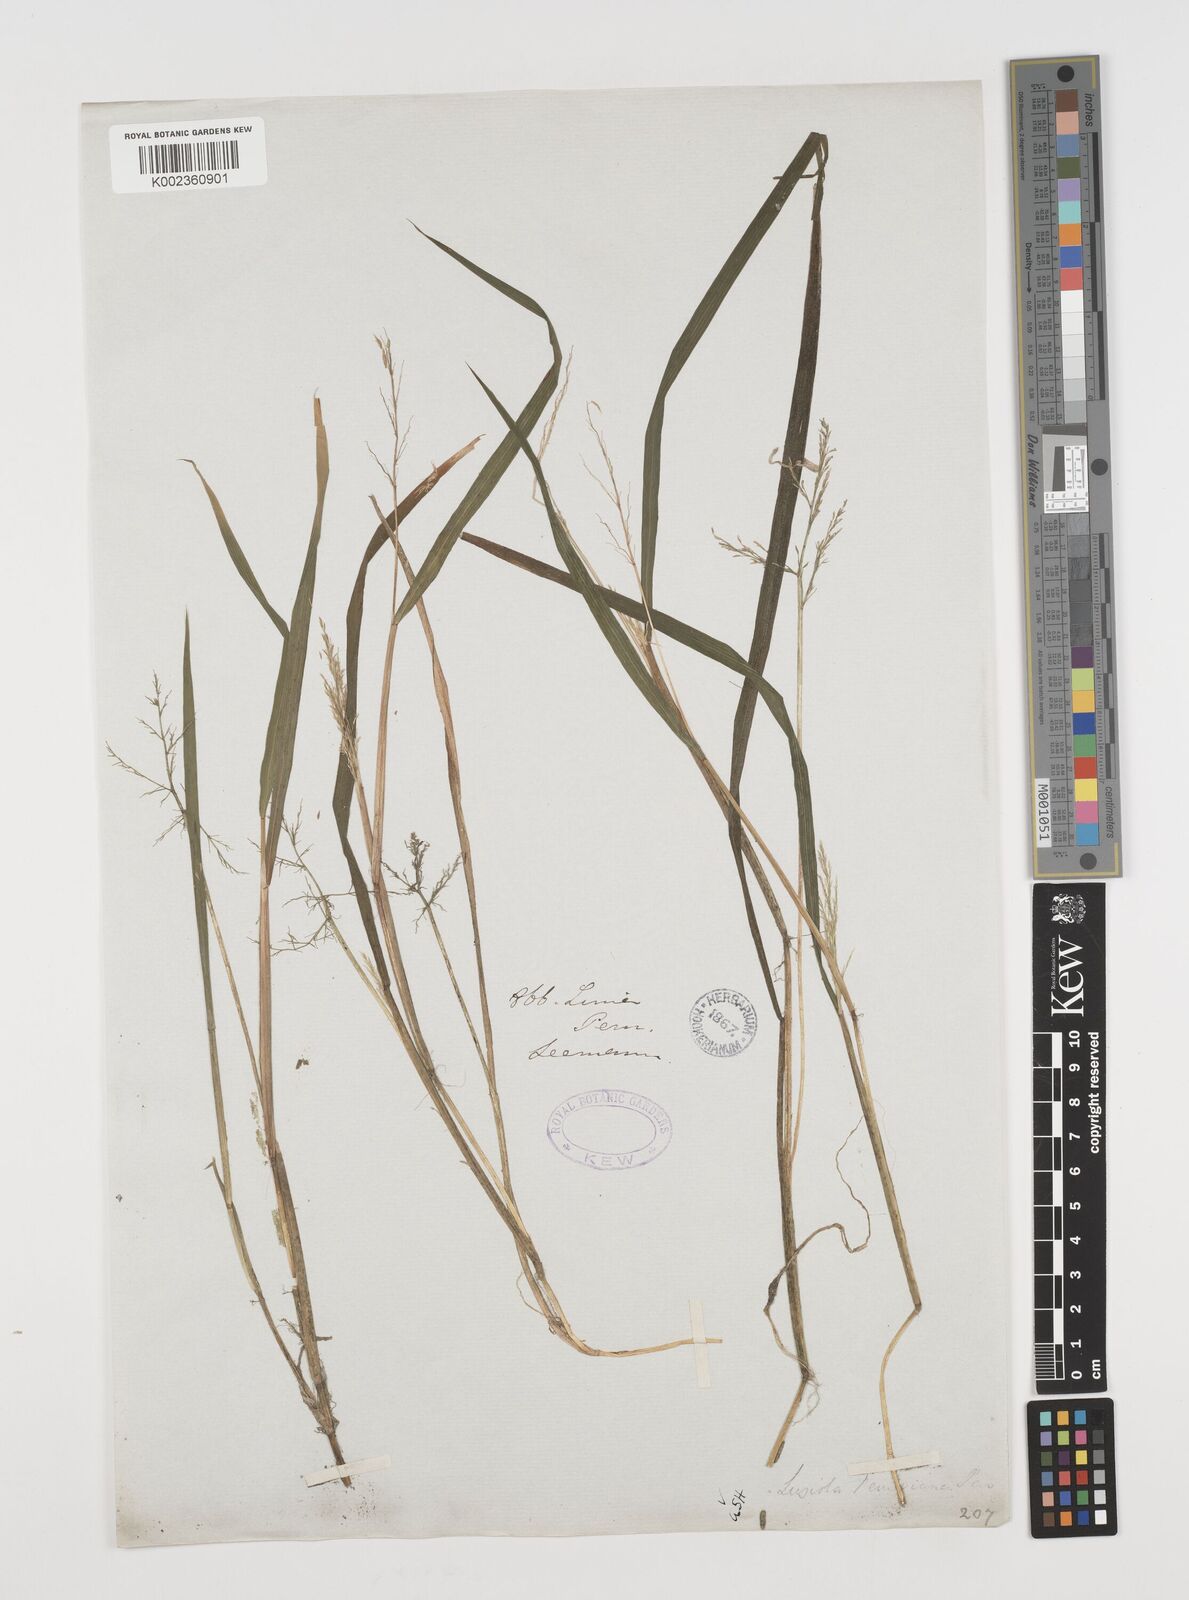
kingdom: Plantae
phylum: Tracheophyta
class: Liliopsida
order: Poales
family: Poaceae
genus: Luziola
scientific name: Luziola peruviana
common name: Peruvian watergrass
